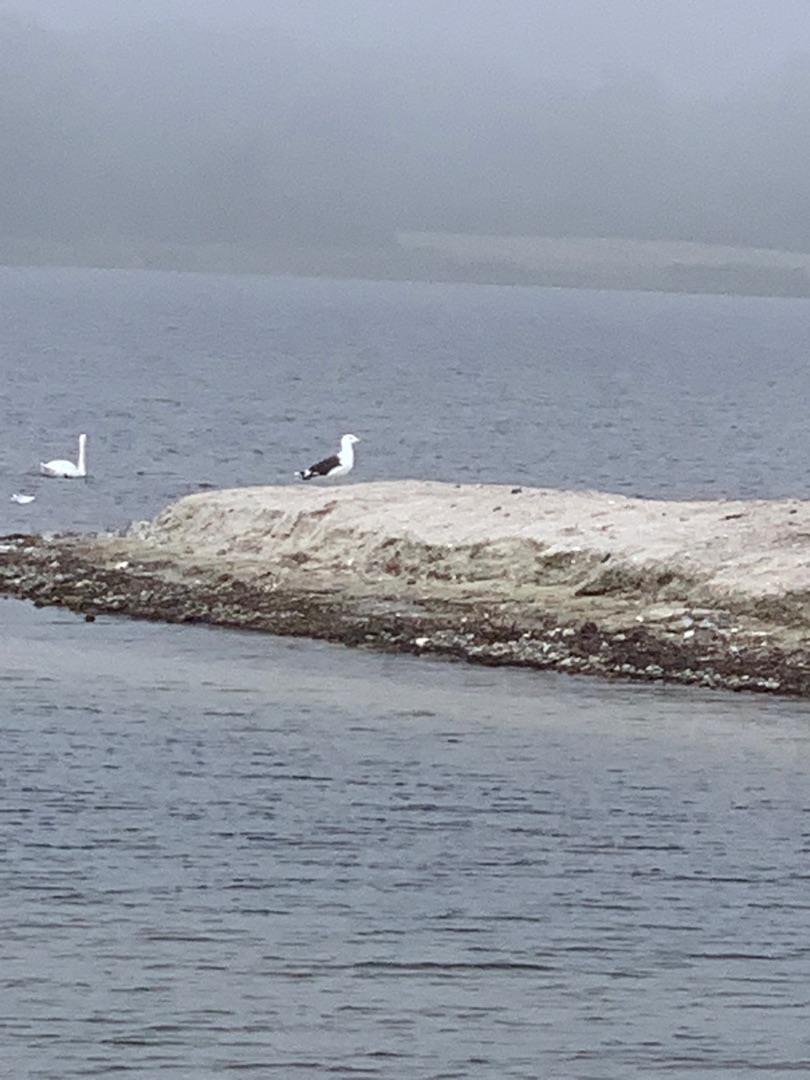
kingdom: Animalia
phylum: Chordata
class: Aves
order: Charadriiformes
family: Laridae
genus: Larus
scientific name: Larus marinus
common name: Svartbag
